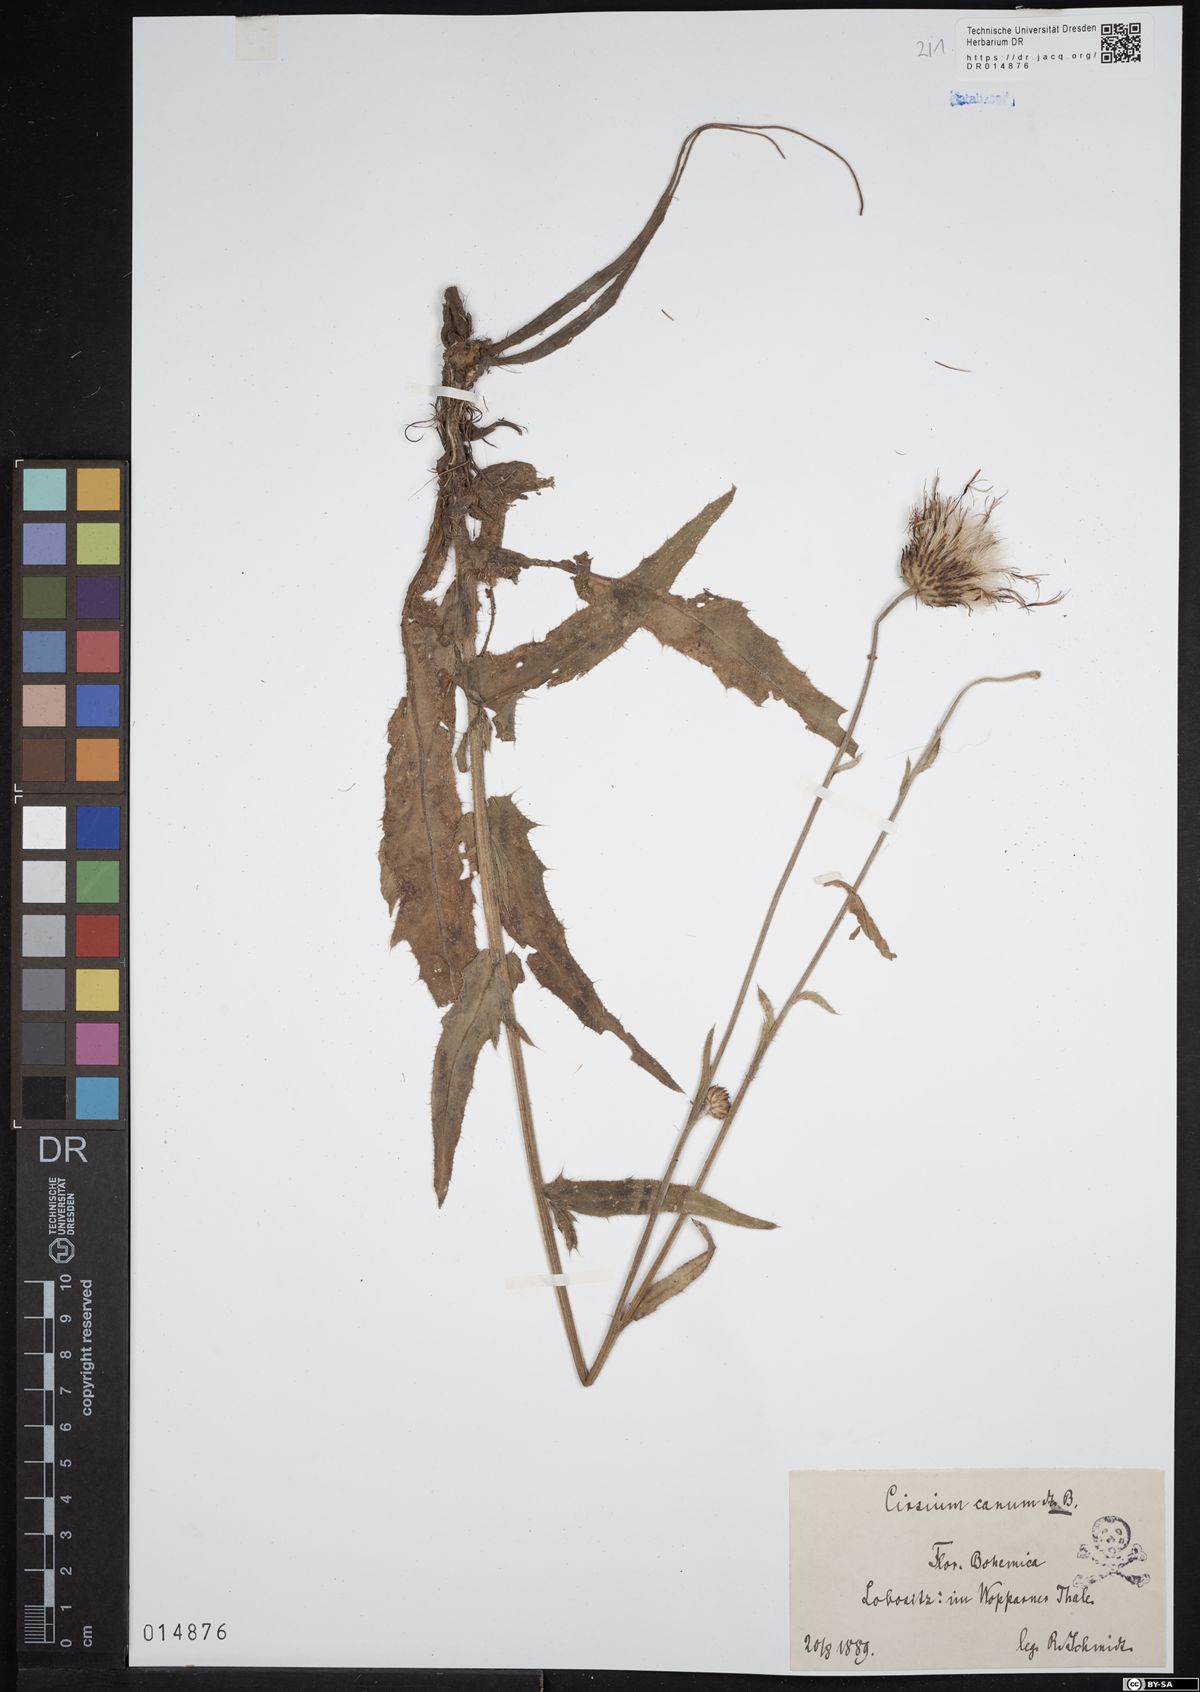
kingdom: Plantae
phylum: Tracheophyta
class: Magnoliopsida
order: Asterales
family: Asteraceae
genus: Cirsium
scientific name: Cirsium canum
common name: Queen anne's thistle
